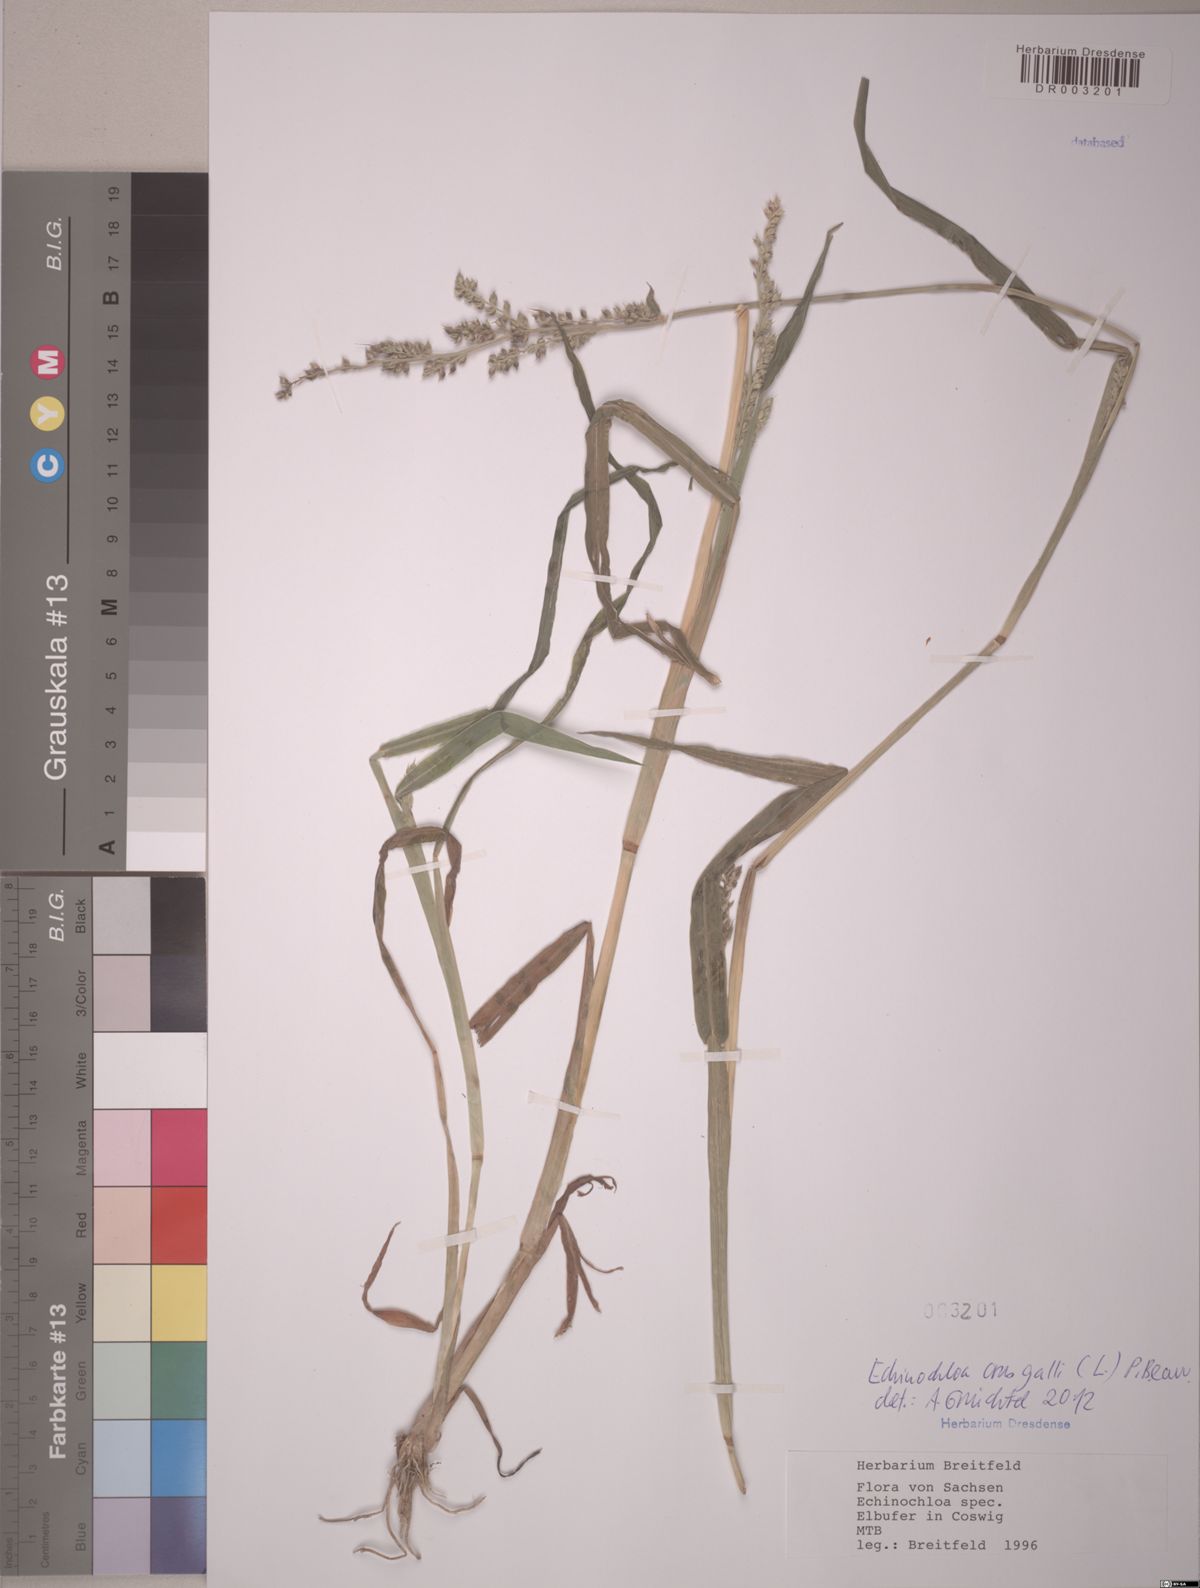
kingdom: Plantae
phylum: Tracheophyta
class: Liliopsida
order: Poales
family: Poaceae
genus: Echinochloa
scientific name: Echinochloa crus-galli
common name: Cockspur
